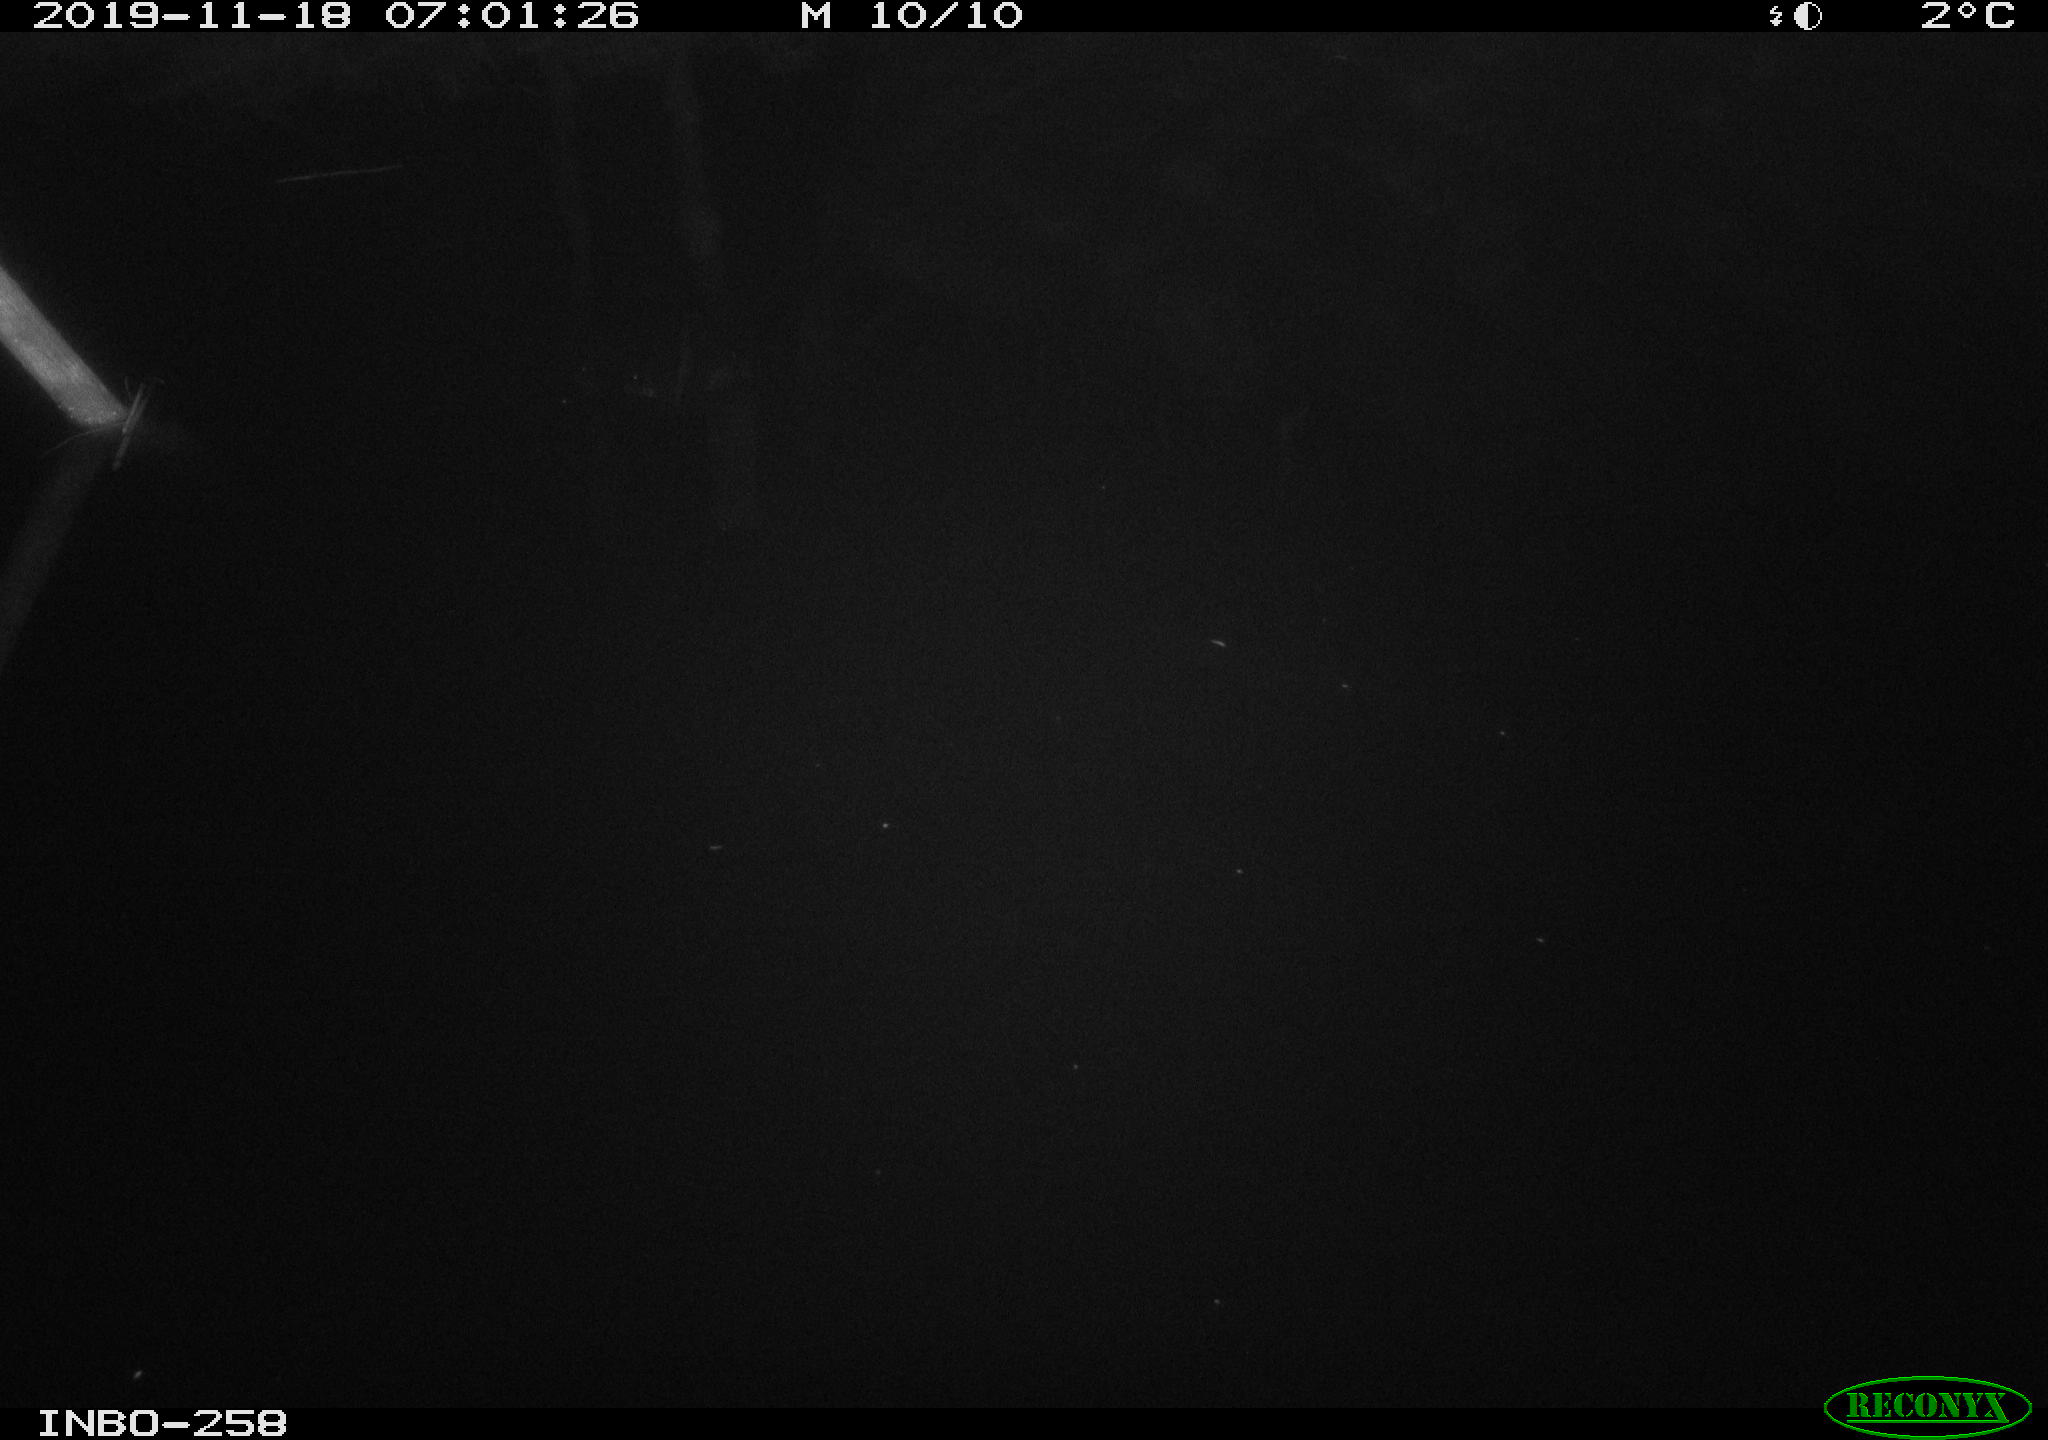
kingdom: Animalia
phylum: Chordata
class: Aves
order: Anseriformes
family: Anatidae
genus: Anas
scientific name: Anas platyrhynchos
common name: Mallard
